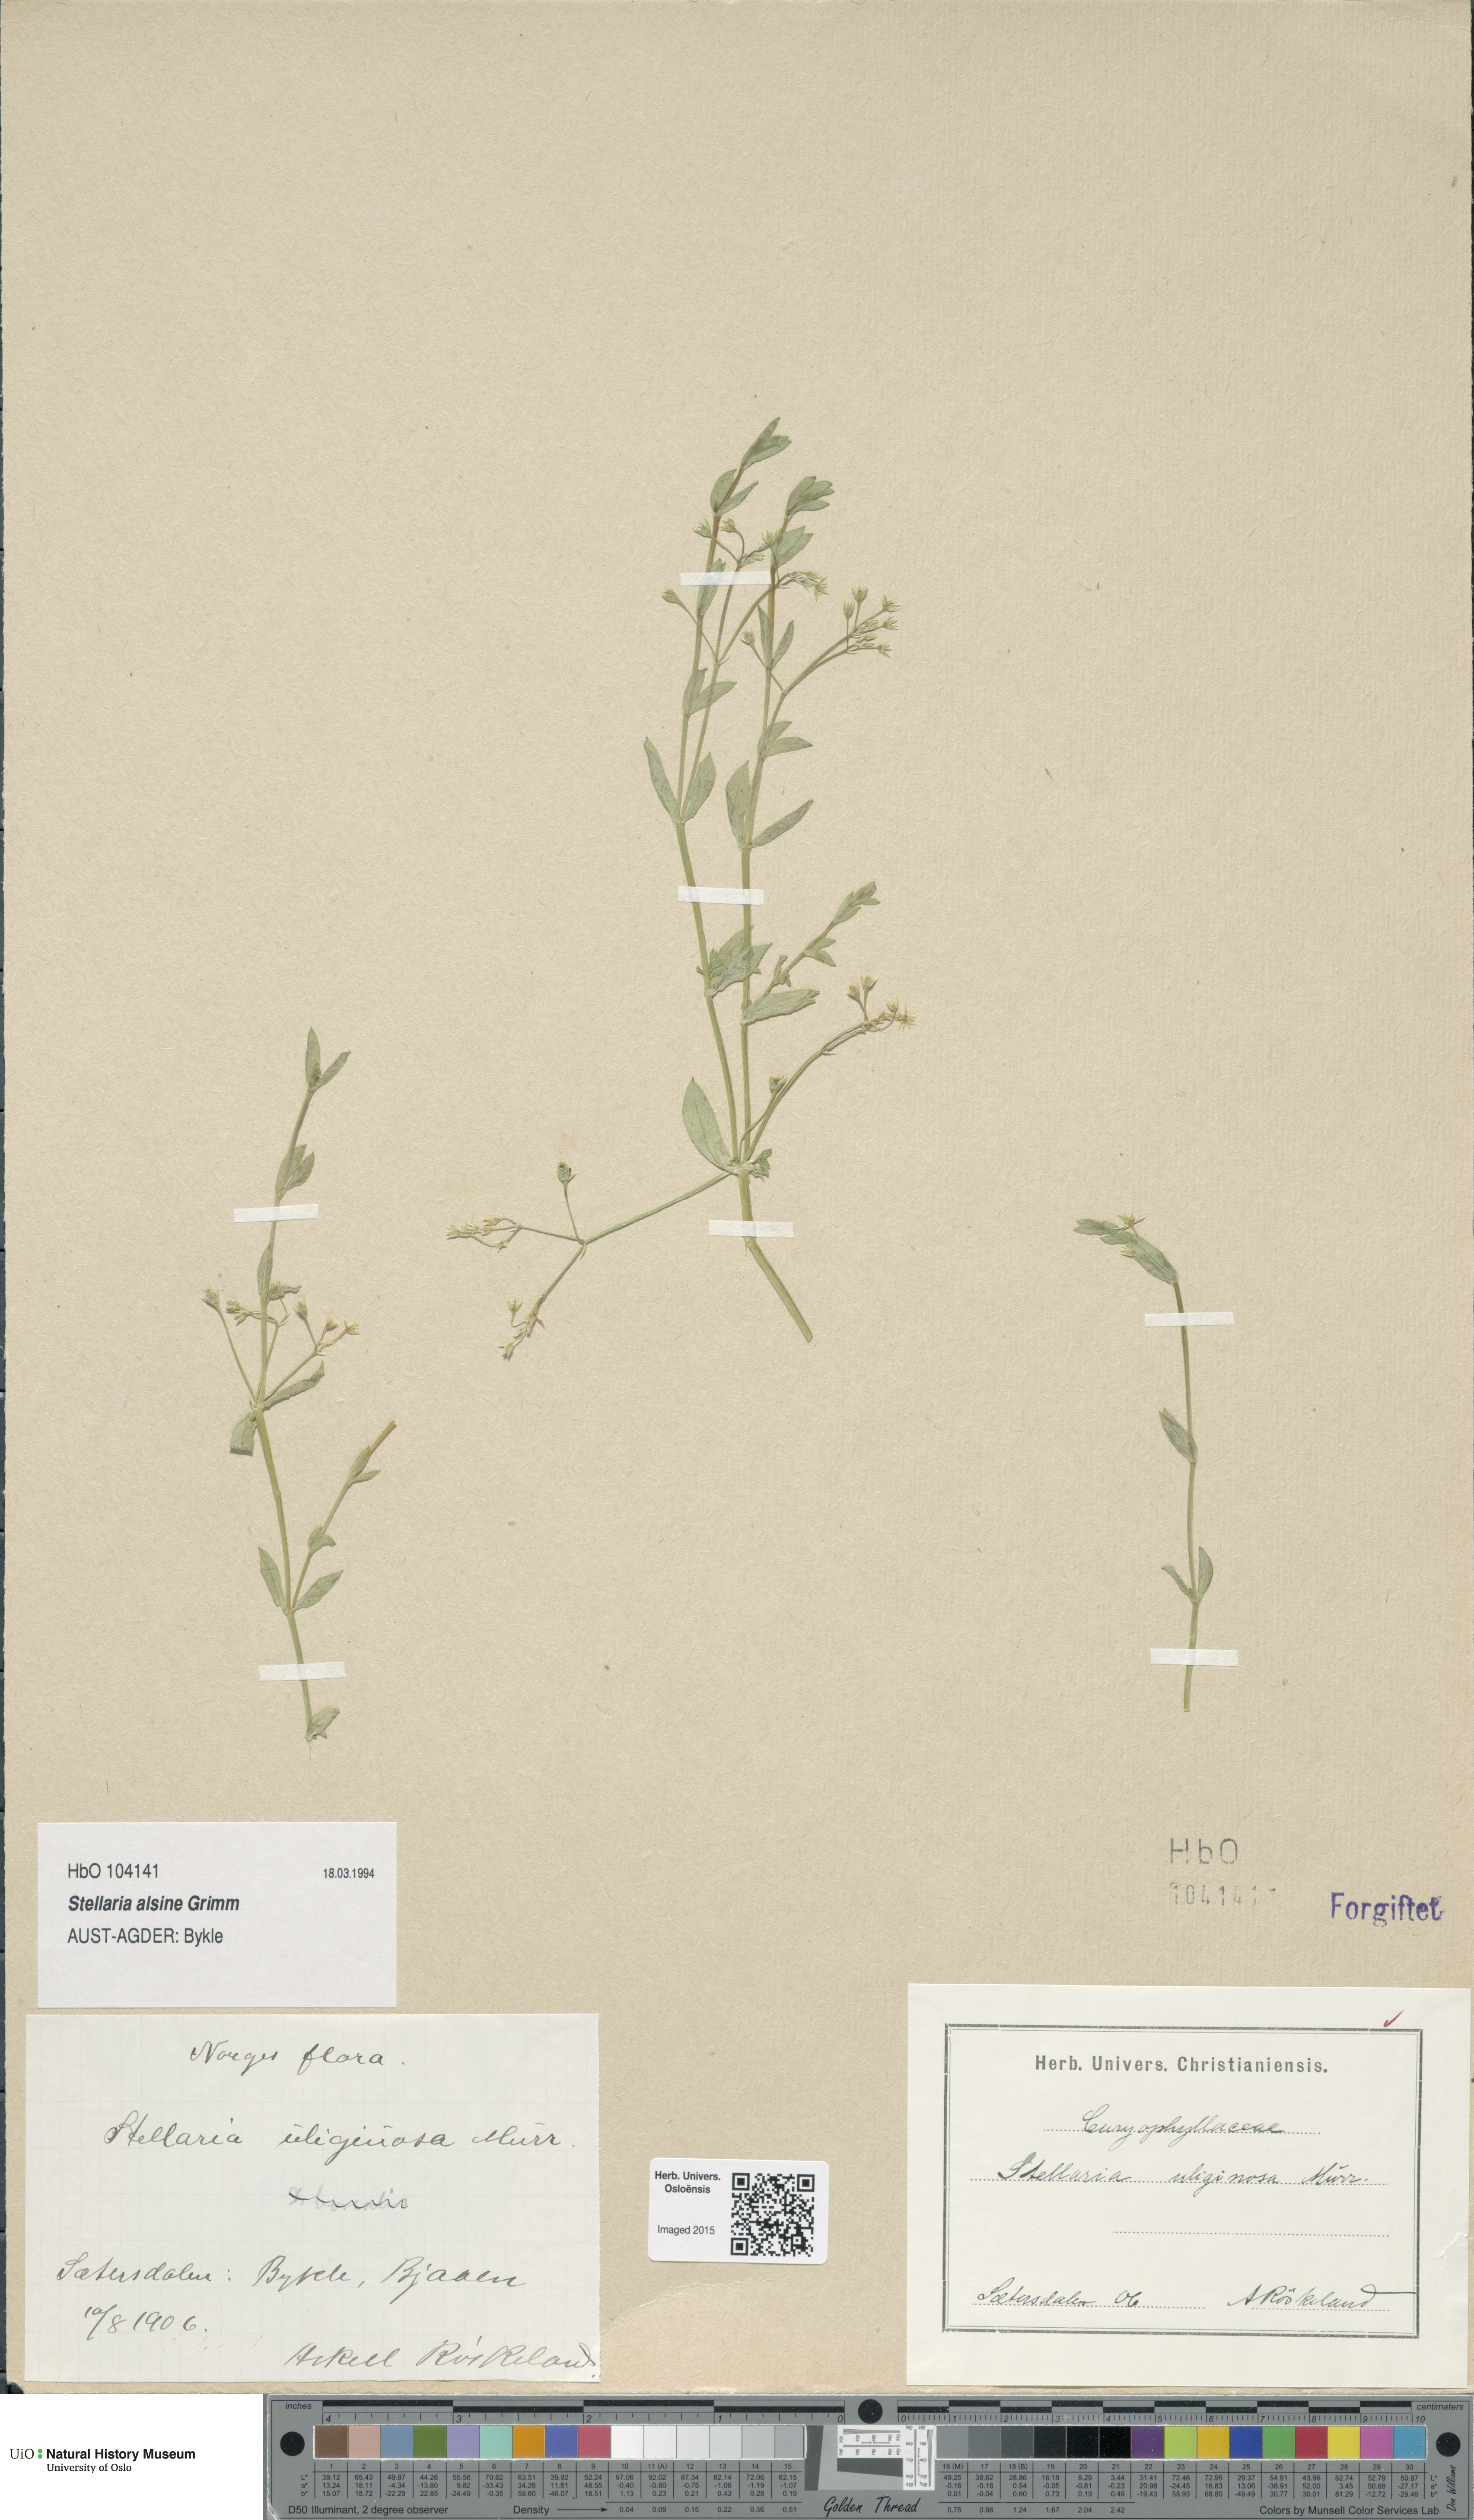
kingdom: Plantae
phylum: Tracheophyta
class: Magnoliopsida
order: Caryophyllales
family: Caryophyllaceae
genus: Stellaria
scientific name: Stellaria alsine
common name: Bog stitchwort
